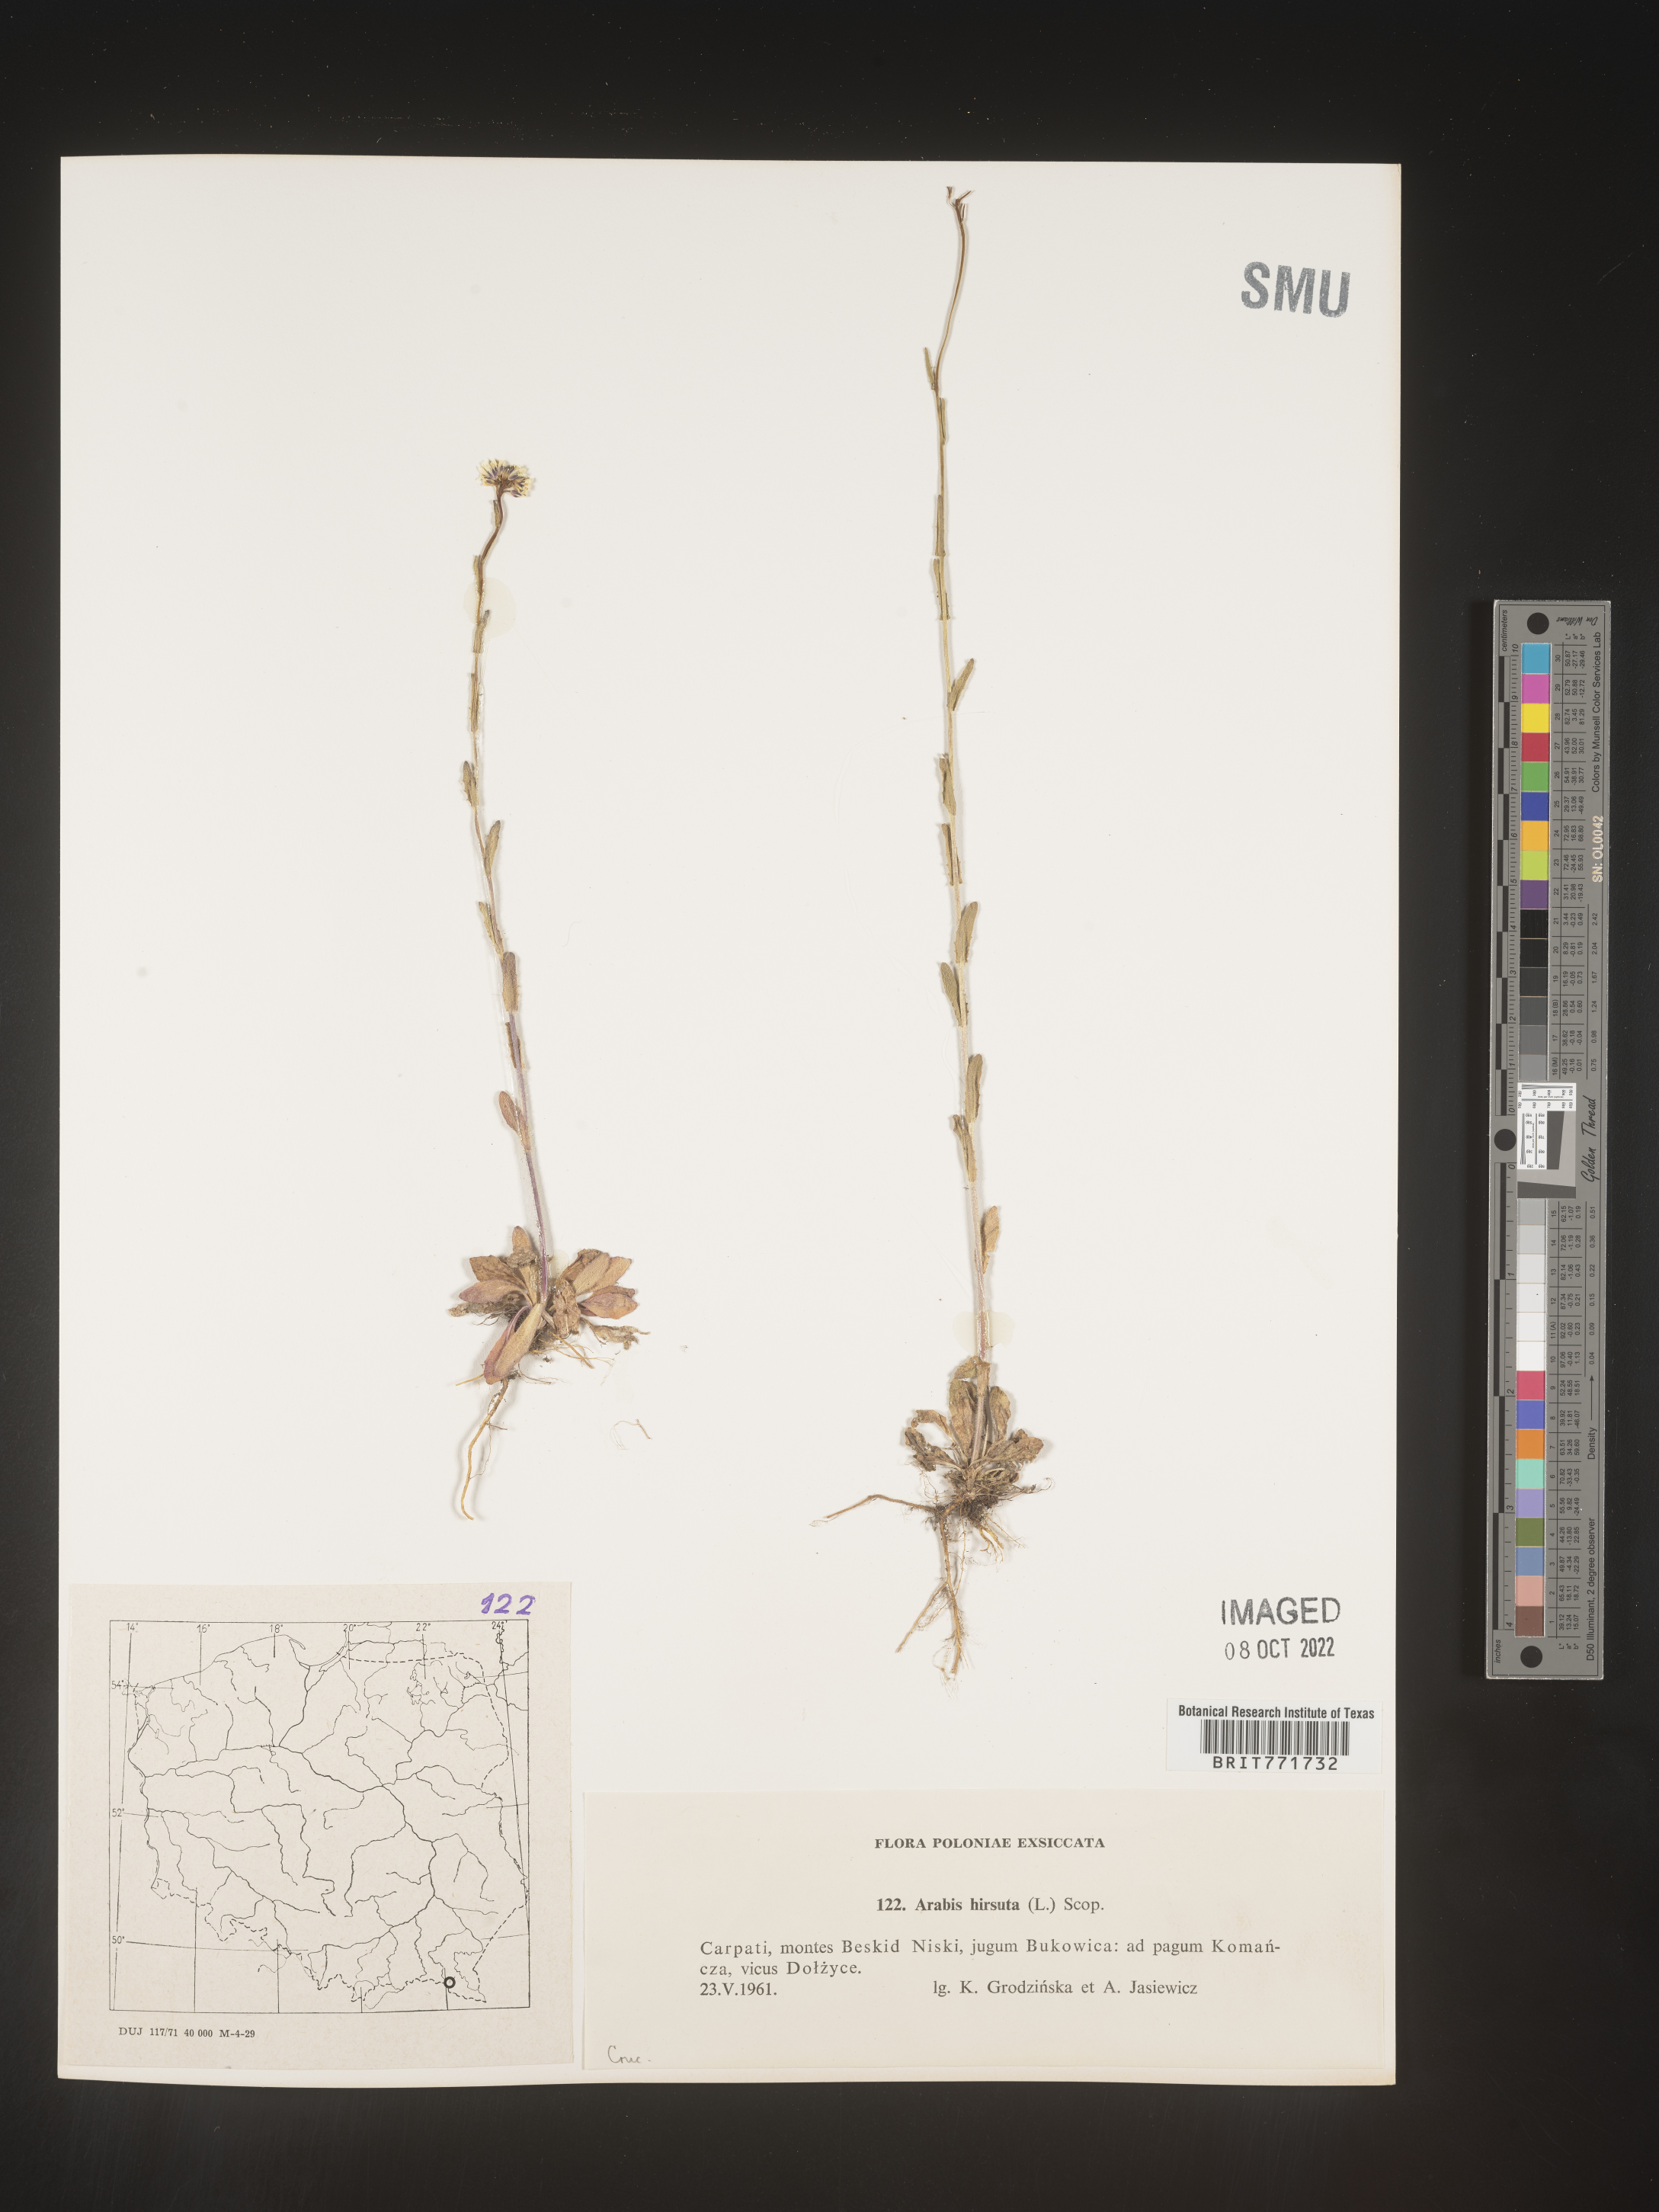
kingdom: Plantae
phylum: Tracheophyta
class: Magnoliopsida
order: Brassicales
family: Brassicaceae
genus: Arabis
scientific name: Arabis
